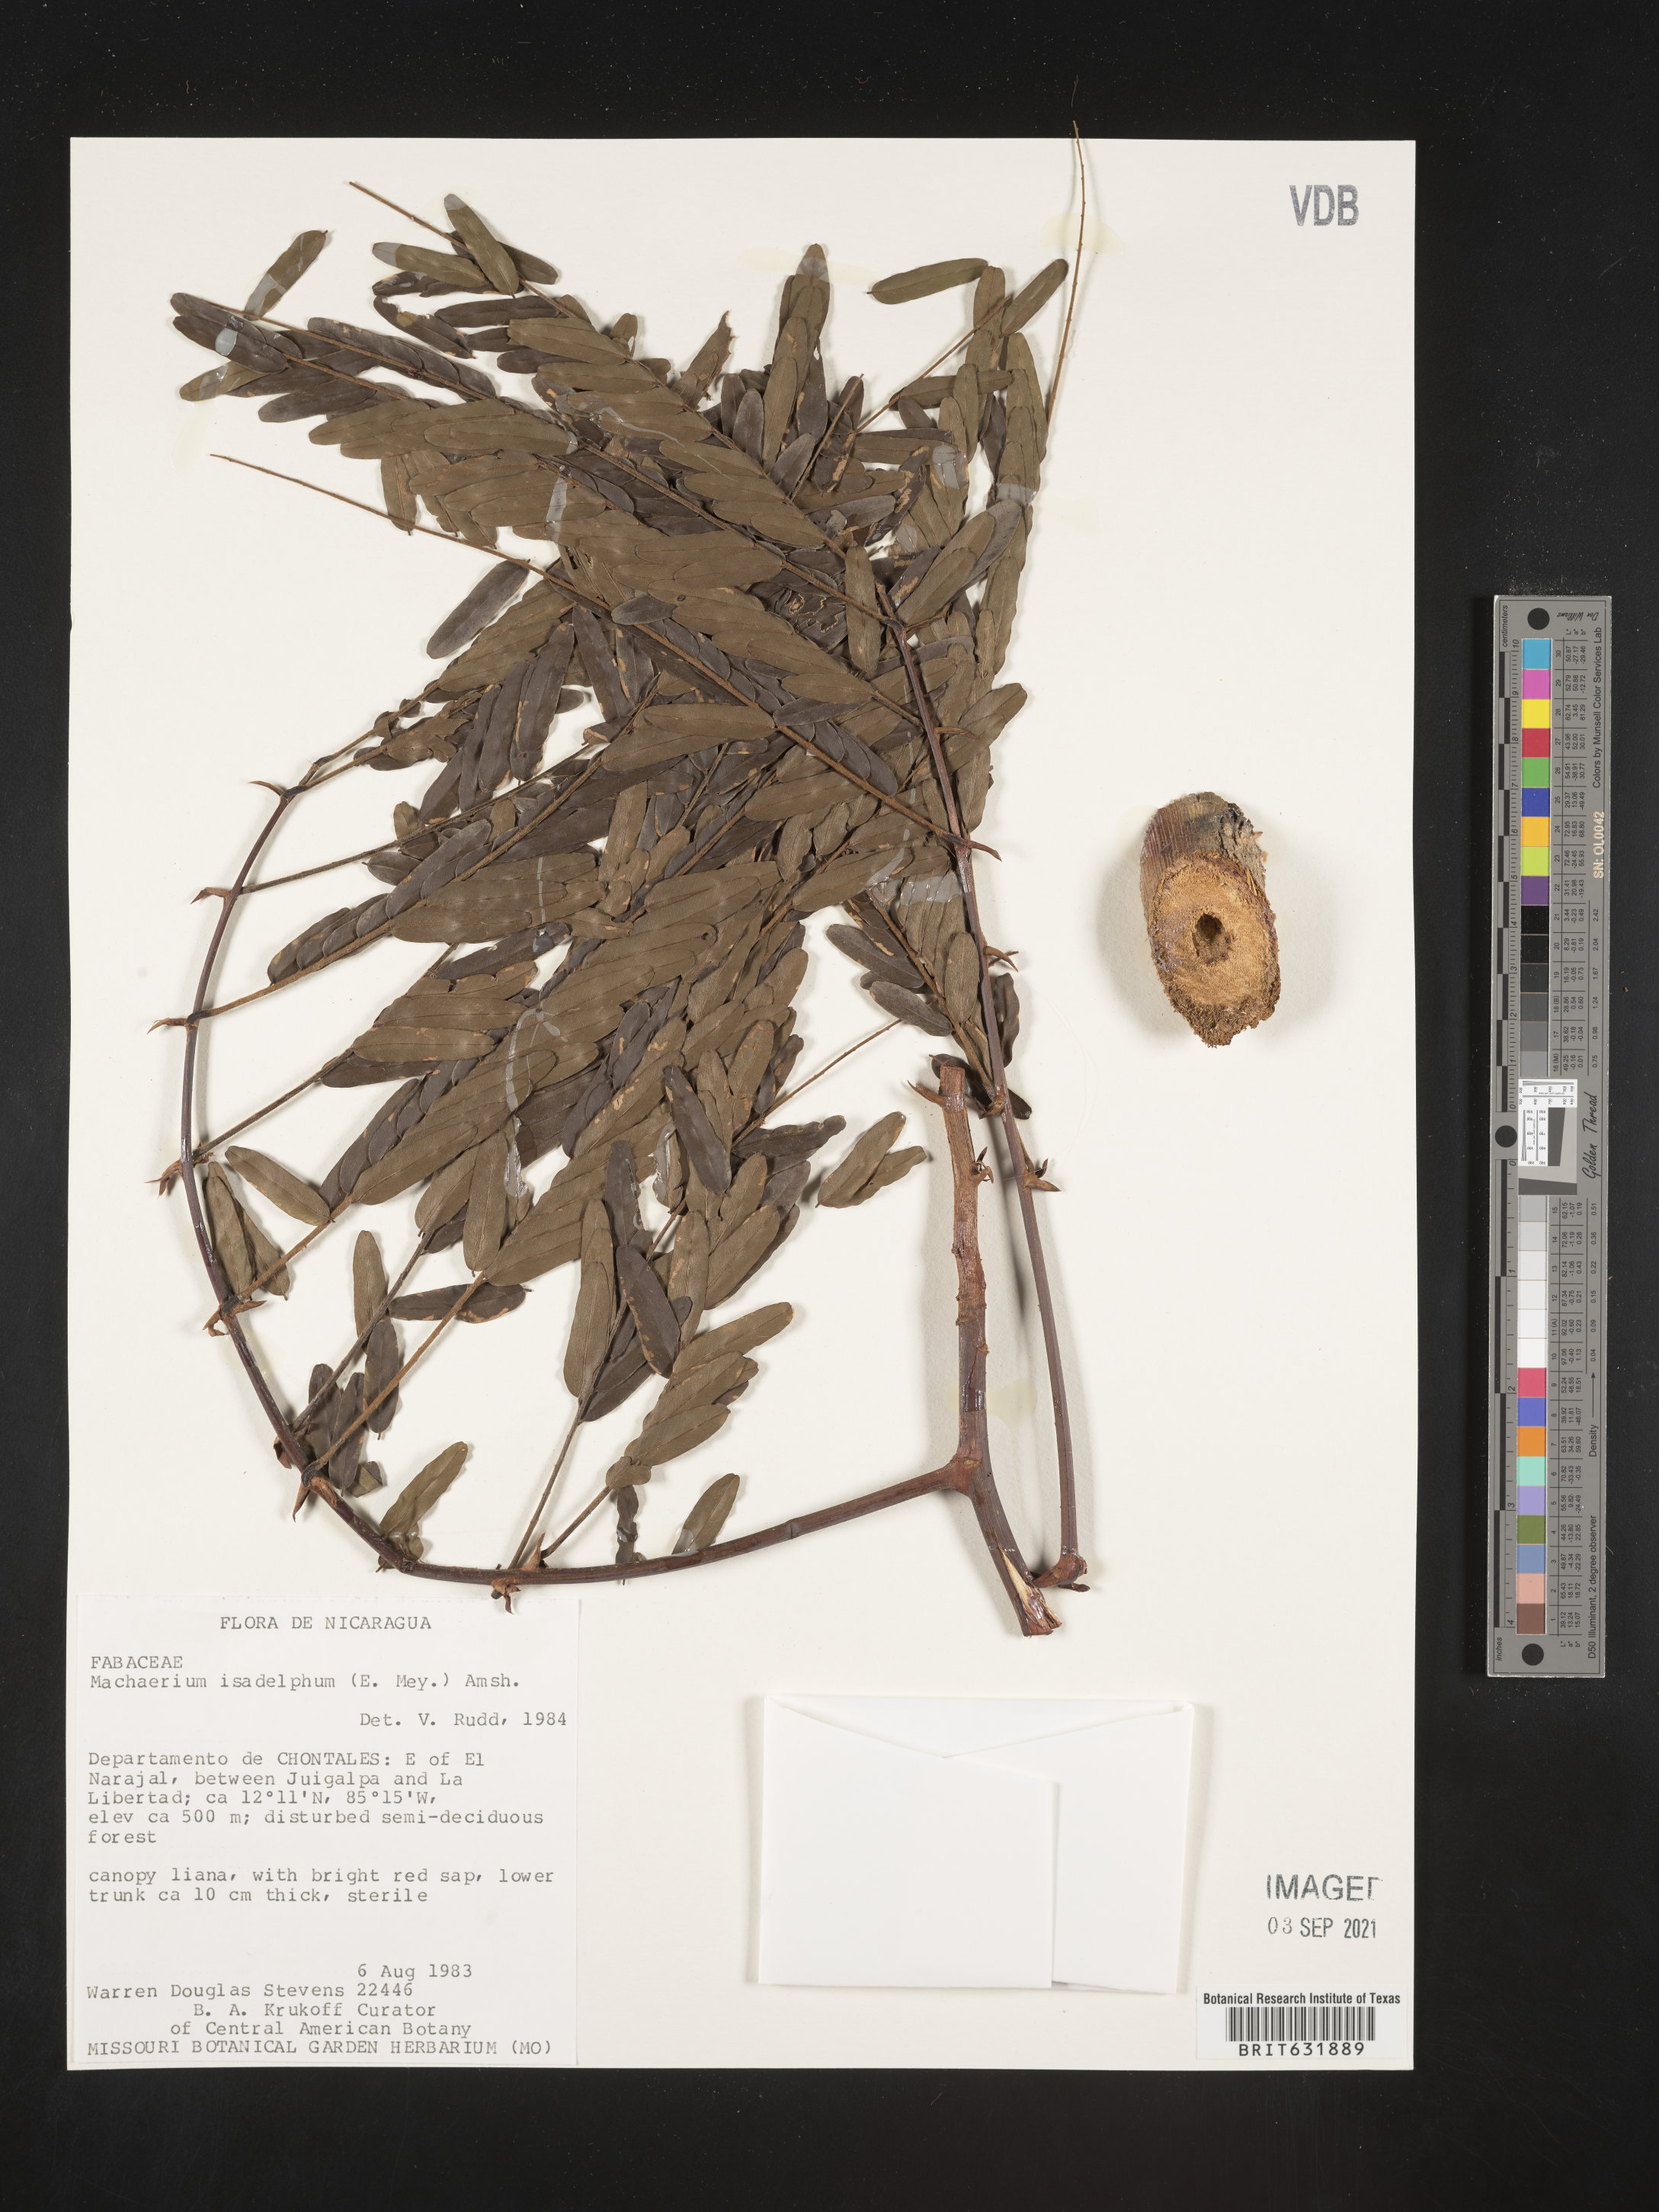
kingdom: Plantae
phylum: Tracheophyta
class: Magnoliopsida
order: Fabales
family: Fabaceae
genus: Machaerium
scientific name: Machaerium
